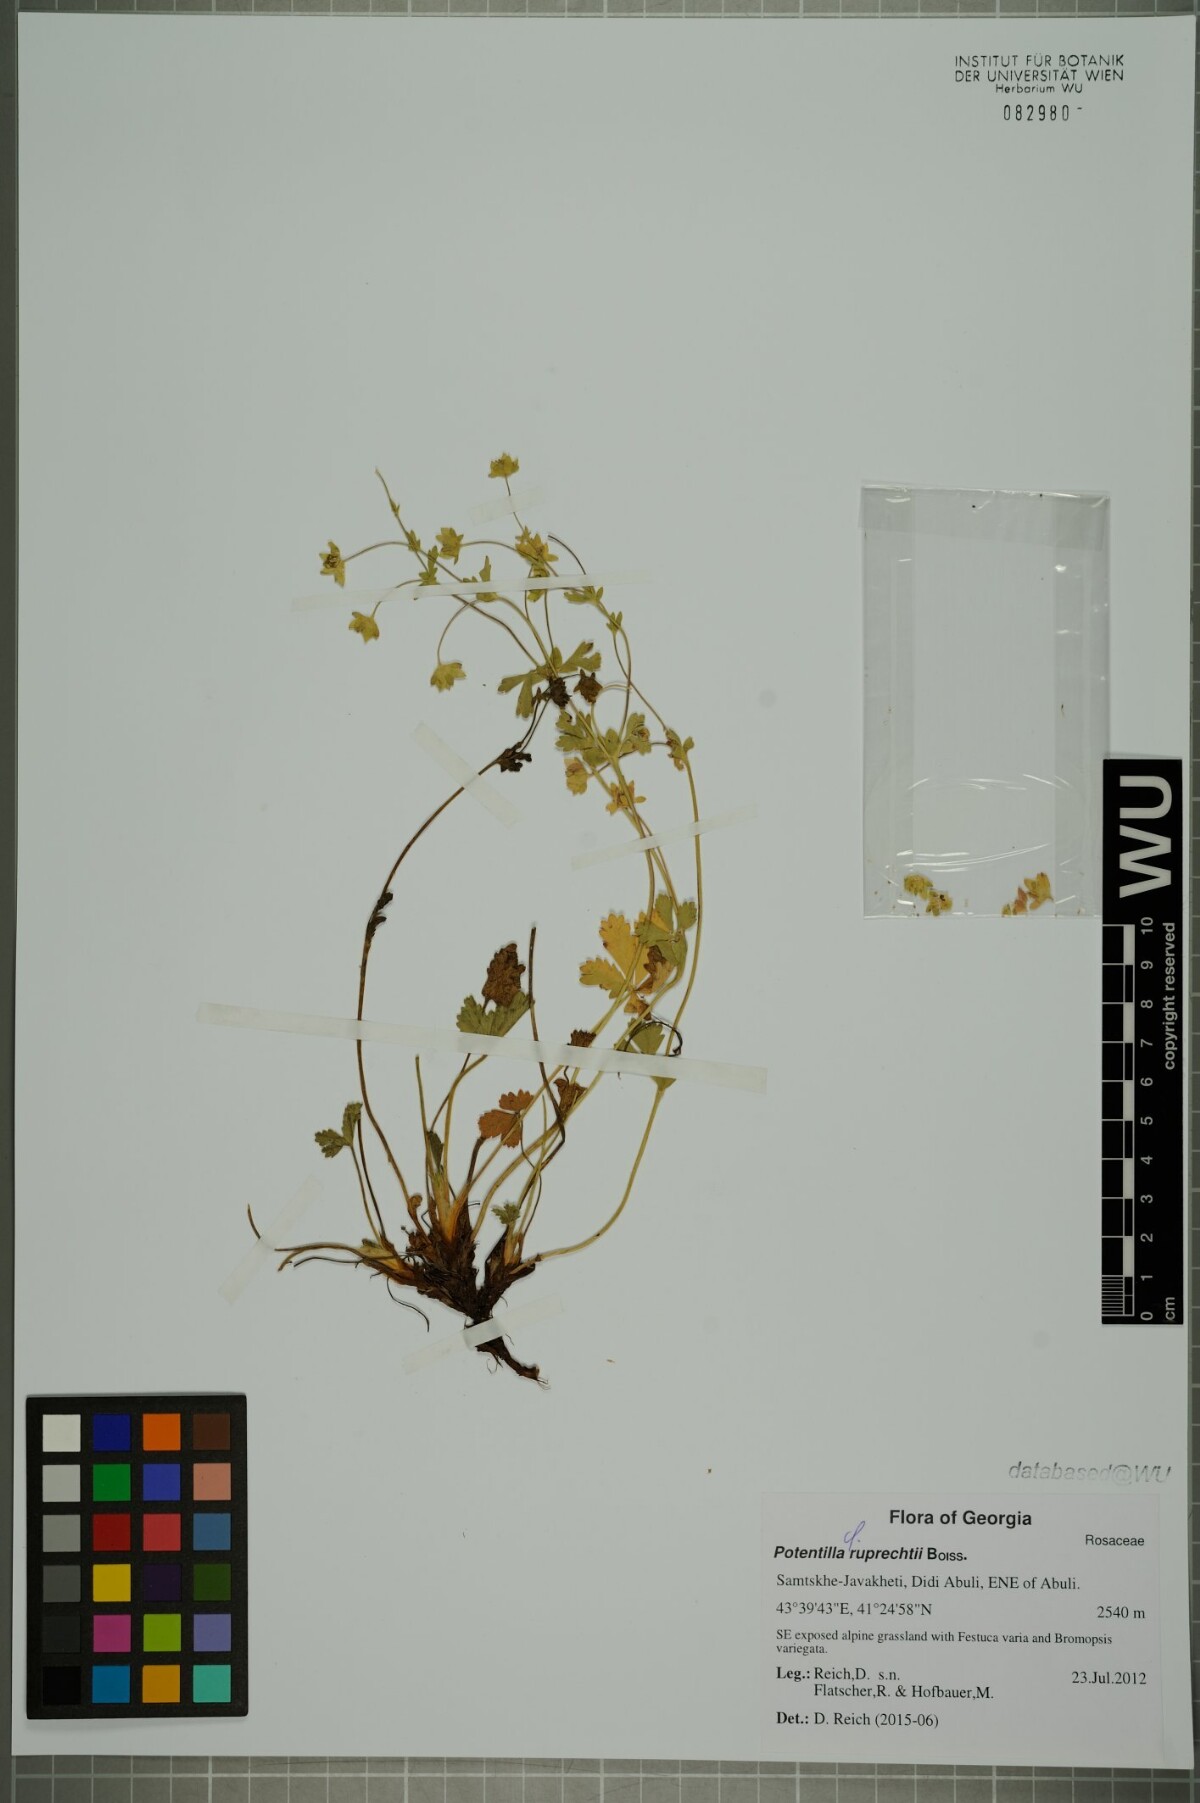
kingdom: Plantae
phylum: Tracheophyta
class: Magnoliopsida
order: Rosales
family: Rosaceae
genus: Potentilla
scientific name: Potentilla ruprechtii
